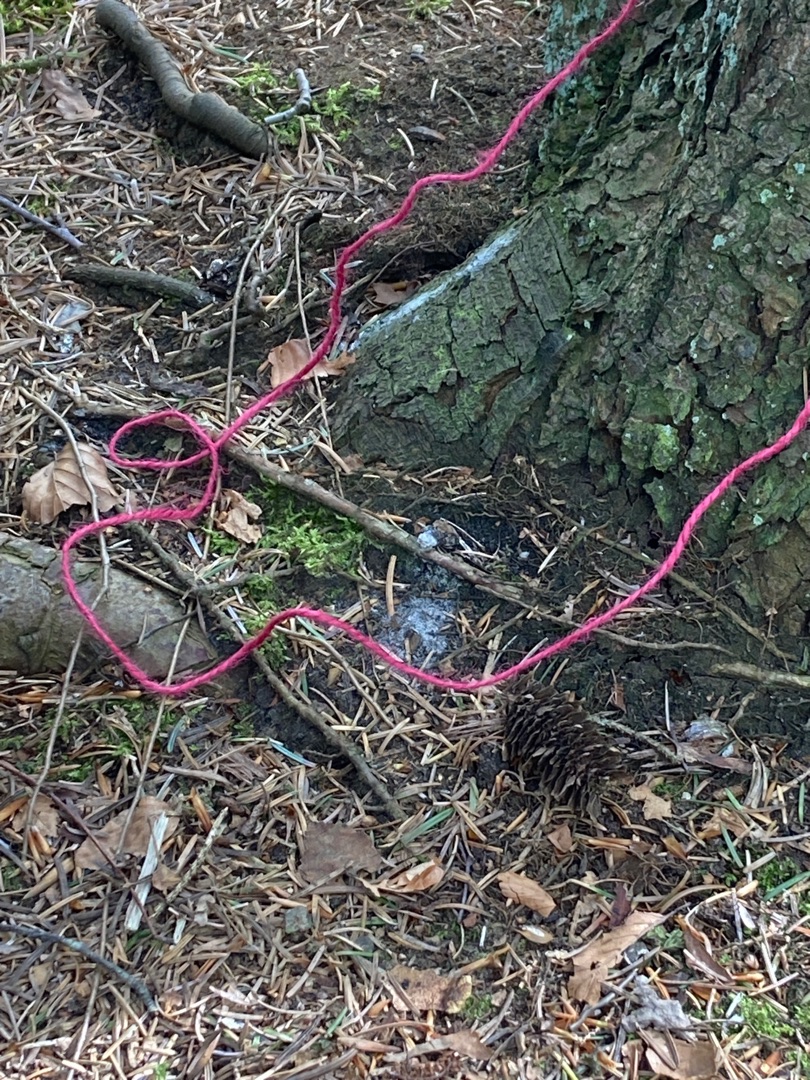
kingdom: Plantae
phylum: Bryophyta
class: Bryopsida
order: Hypnales
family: Hypnaceae
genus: Hypnum
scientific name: Hypnum
